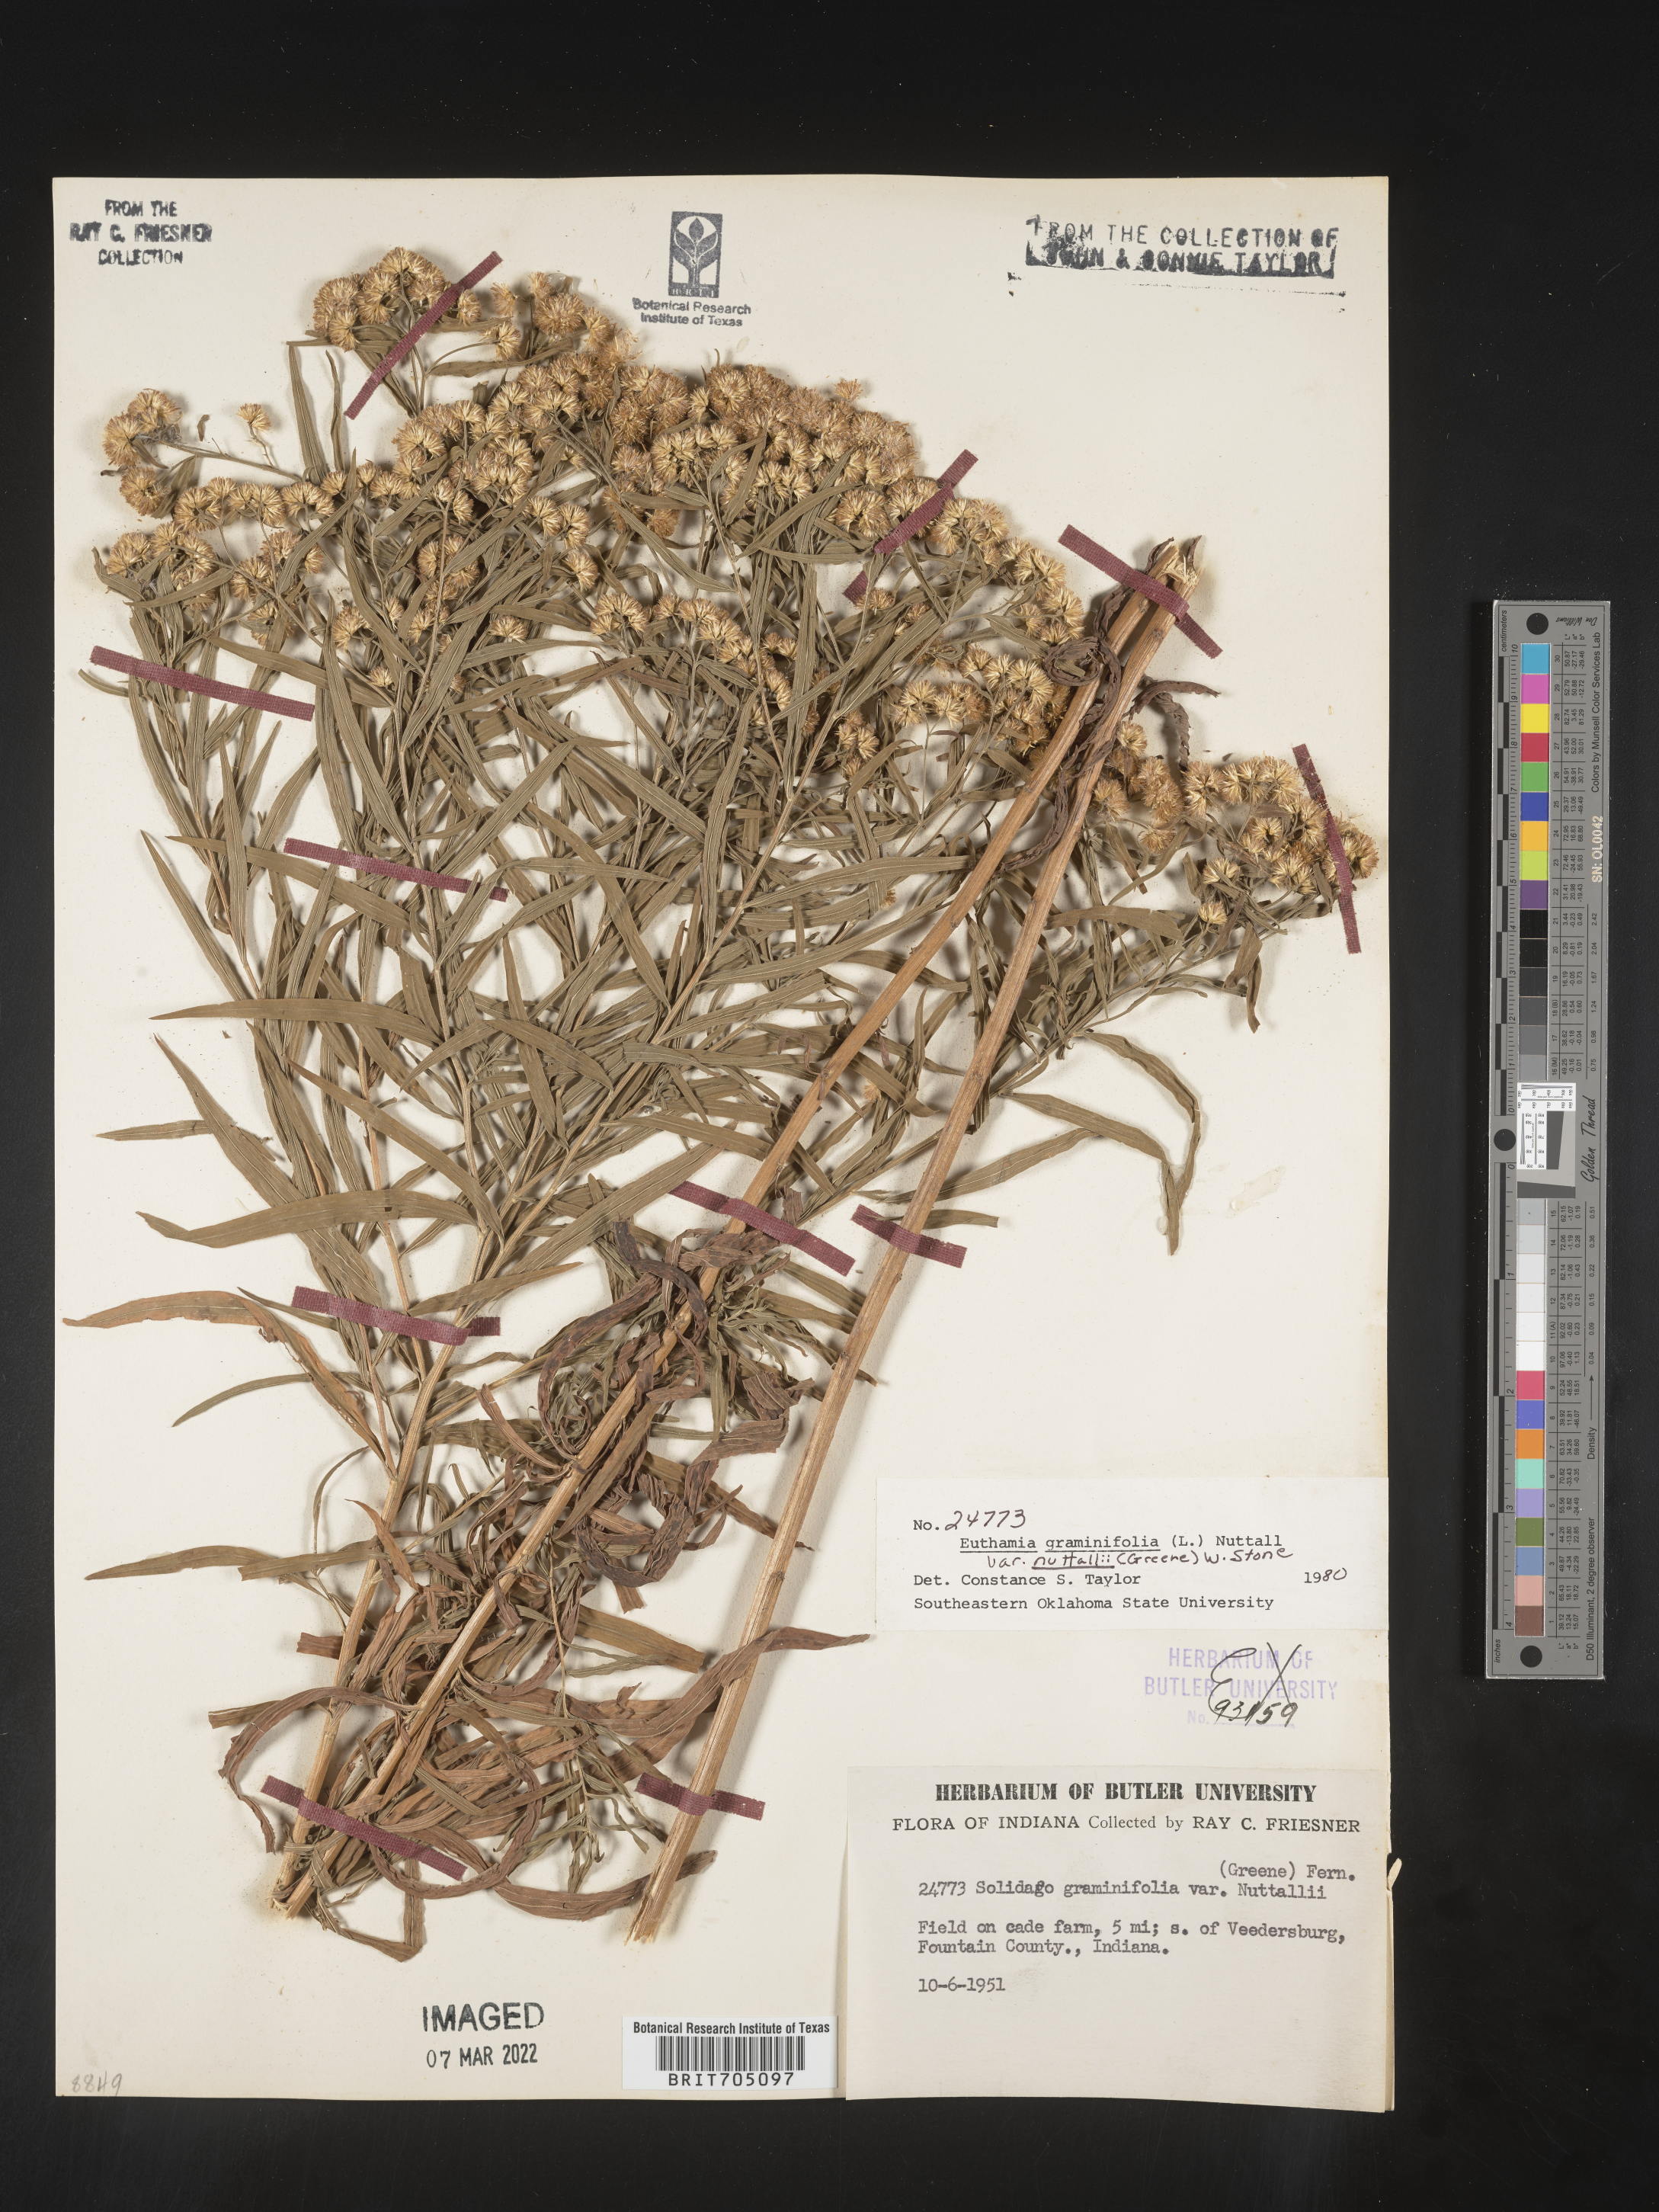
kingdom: Plantae
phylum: Tracheophyta
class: Magnoliopsida
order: Asterales
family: Asteraceae
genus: Euthamia
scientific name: Euthamia graminifolia
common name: Common goldentop
